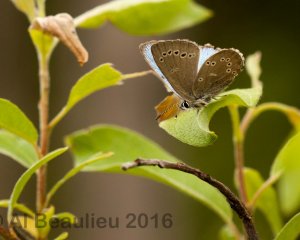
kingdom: Animalia
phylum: Arthropoda
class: Insecta
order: Lepidoptera
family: Lycaenidae
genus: Glaucopsyche
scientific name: Glaucopsyche lygdamus
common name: Silvery Blue
